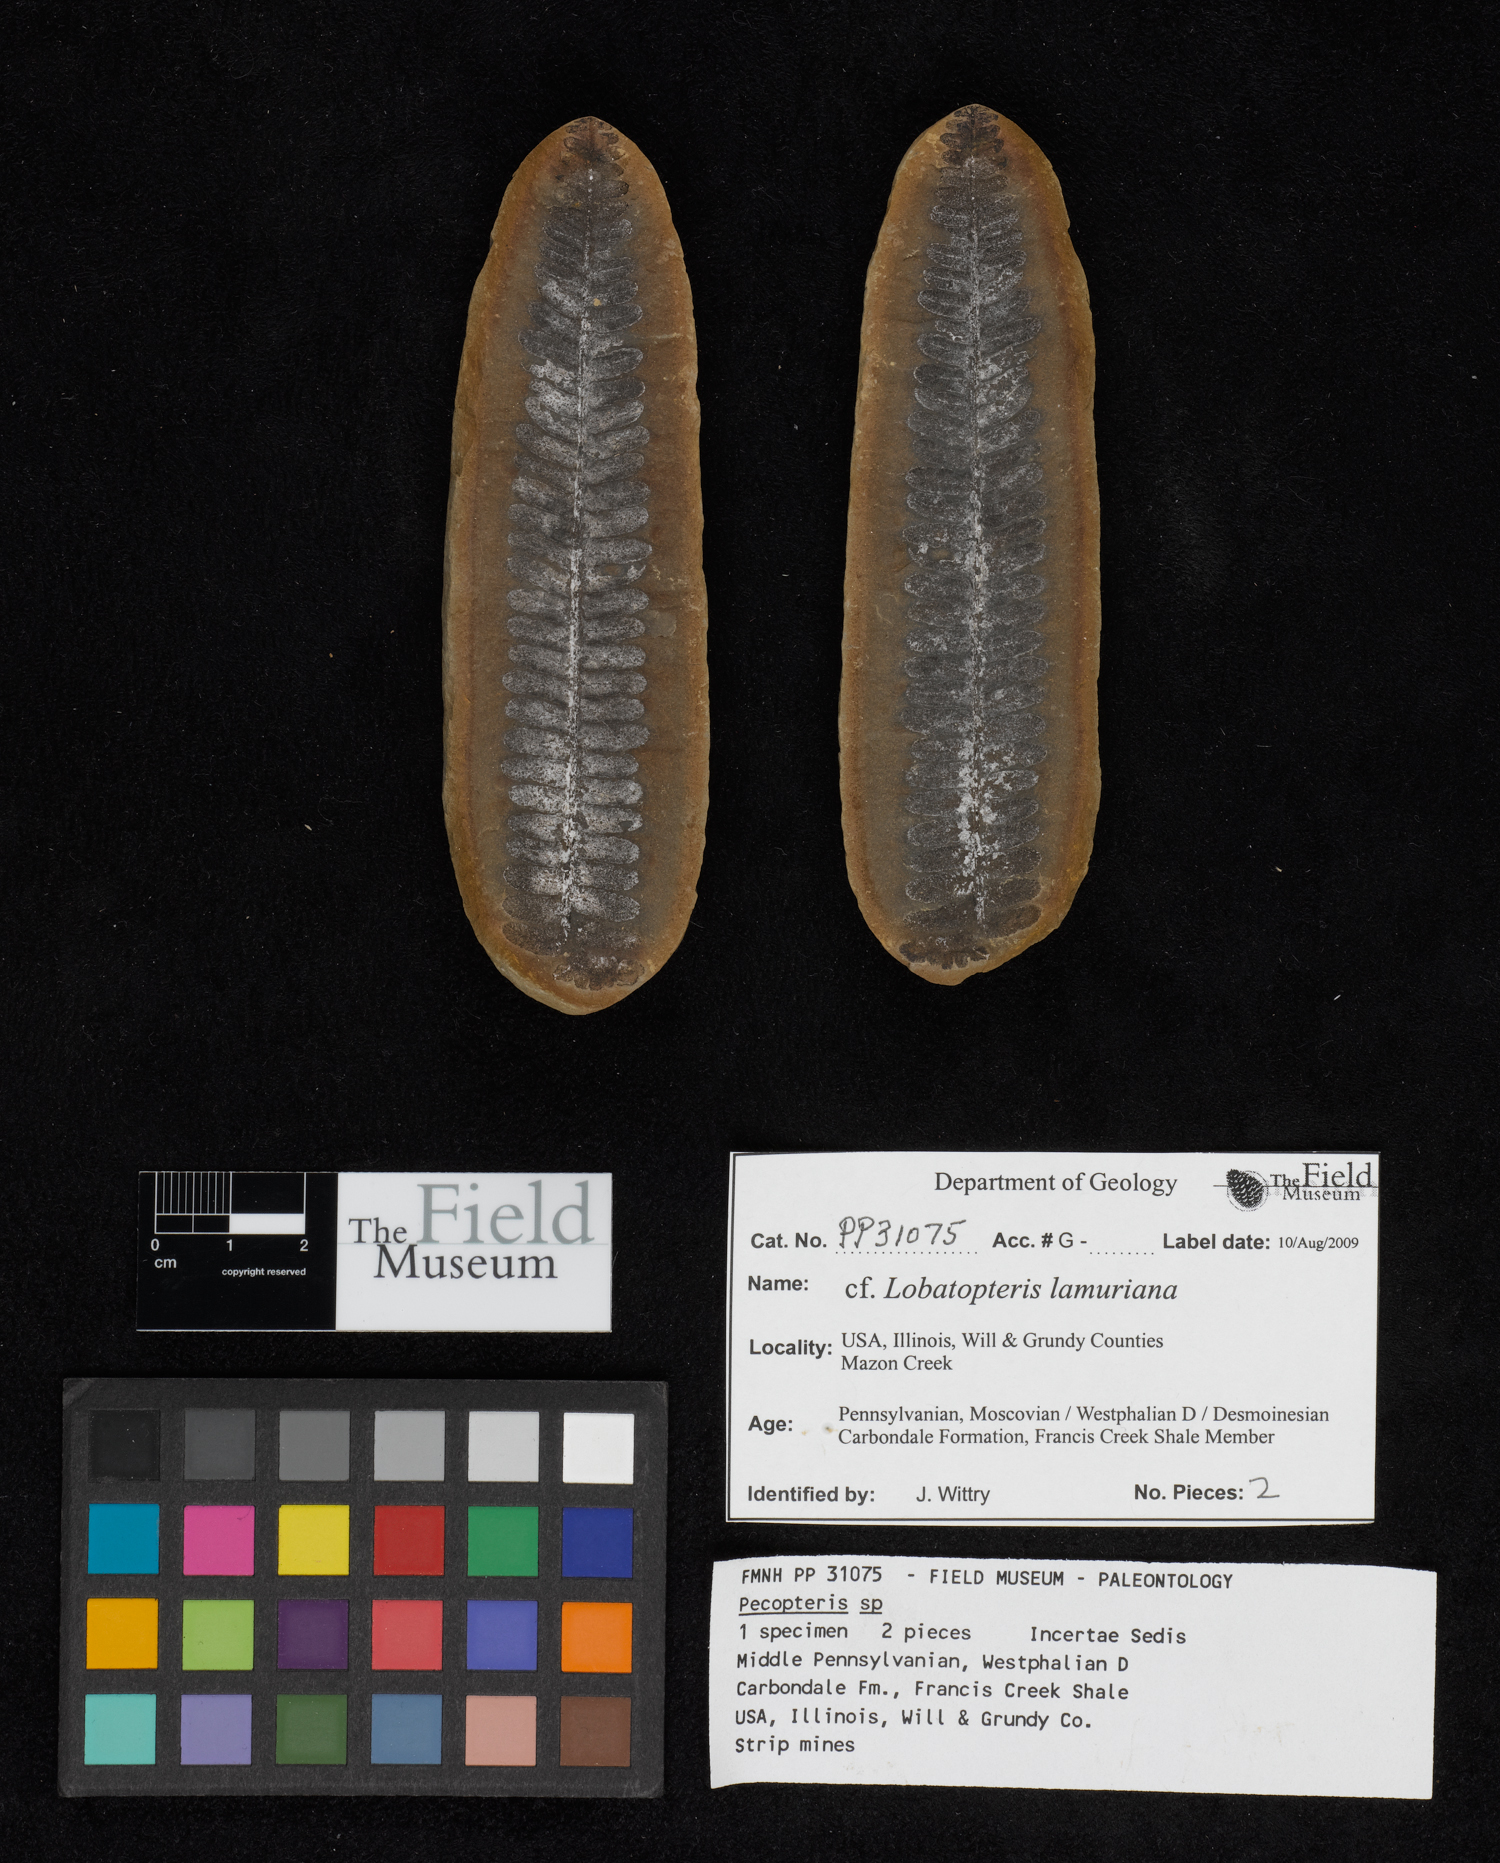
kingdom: Plantae
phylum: Tracheophyta
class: Polypodiopsida
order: Marattiales
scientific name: Marattiales
